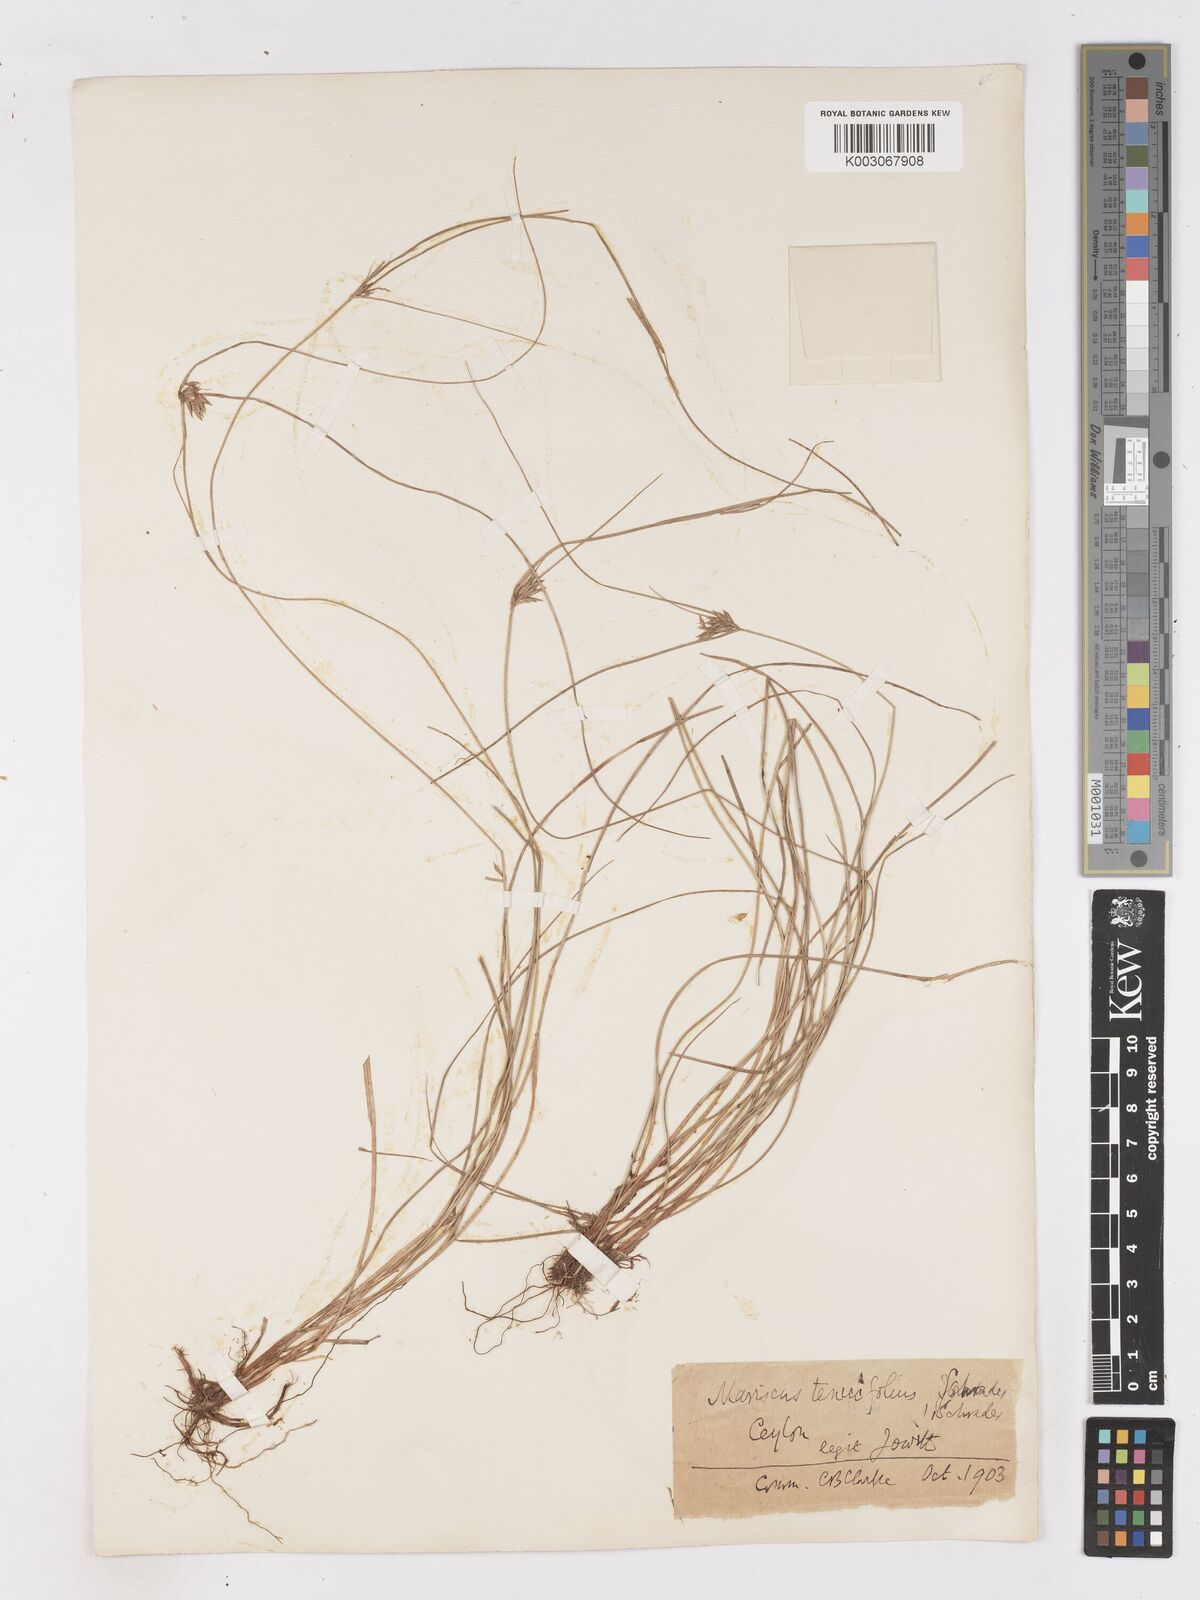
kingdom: Plantae
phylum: Tracheophyta
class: Liliopsida
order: Poales
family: Cyperaceae
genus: Cyperus
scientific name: Cyperus cyperinus
